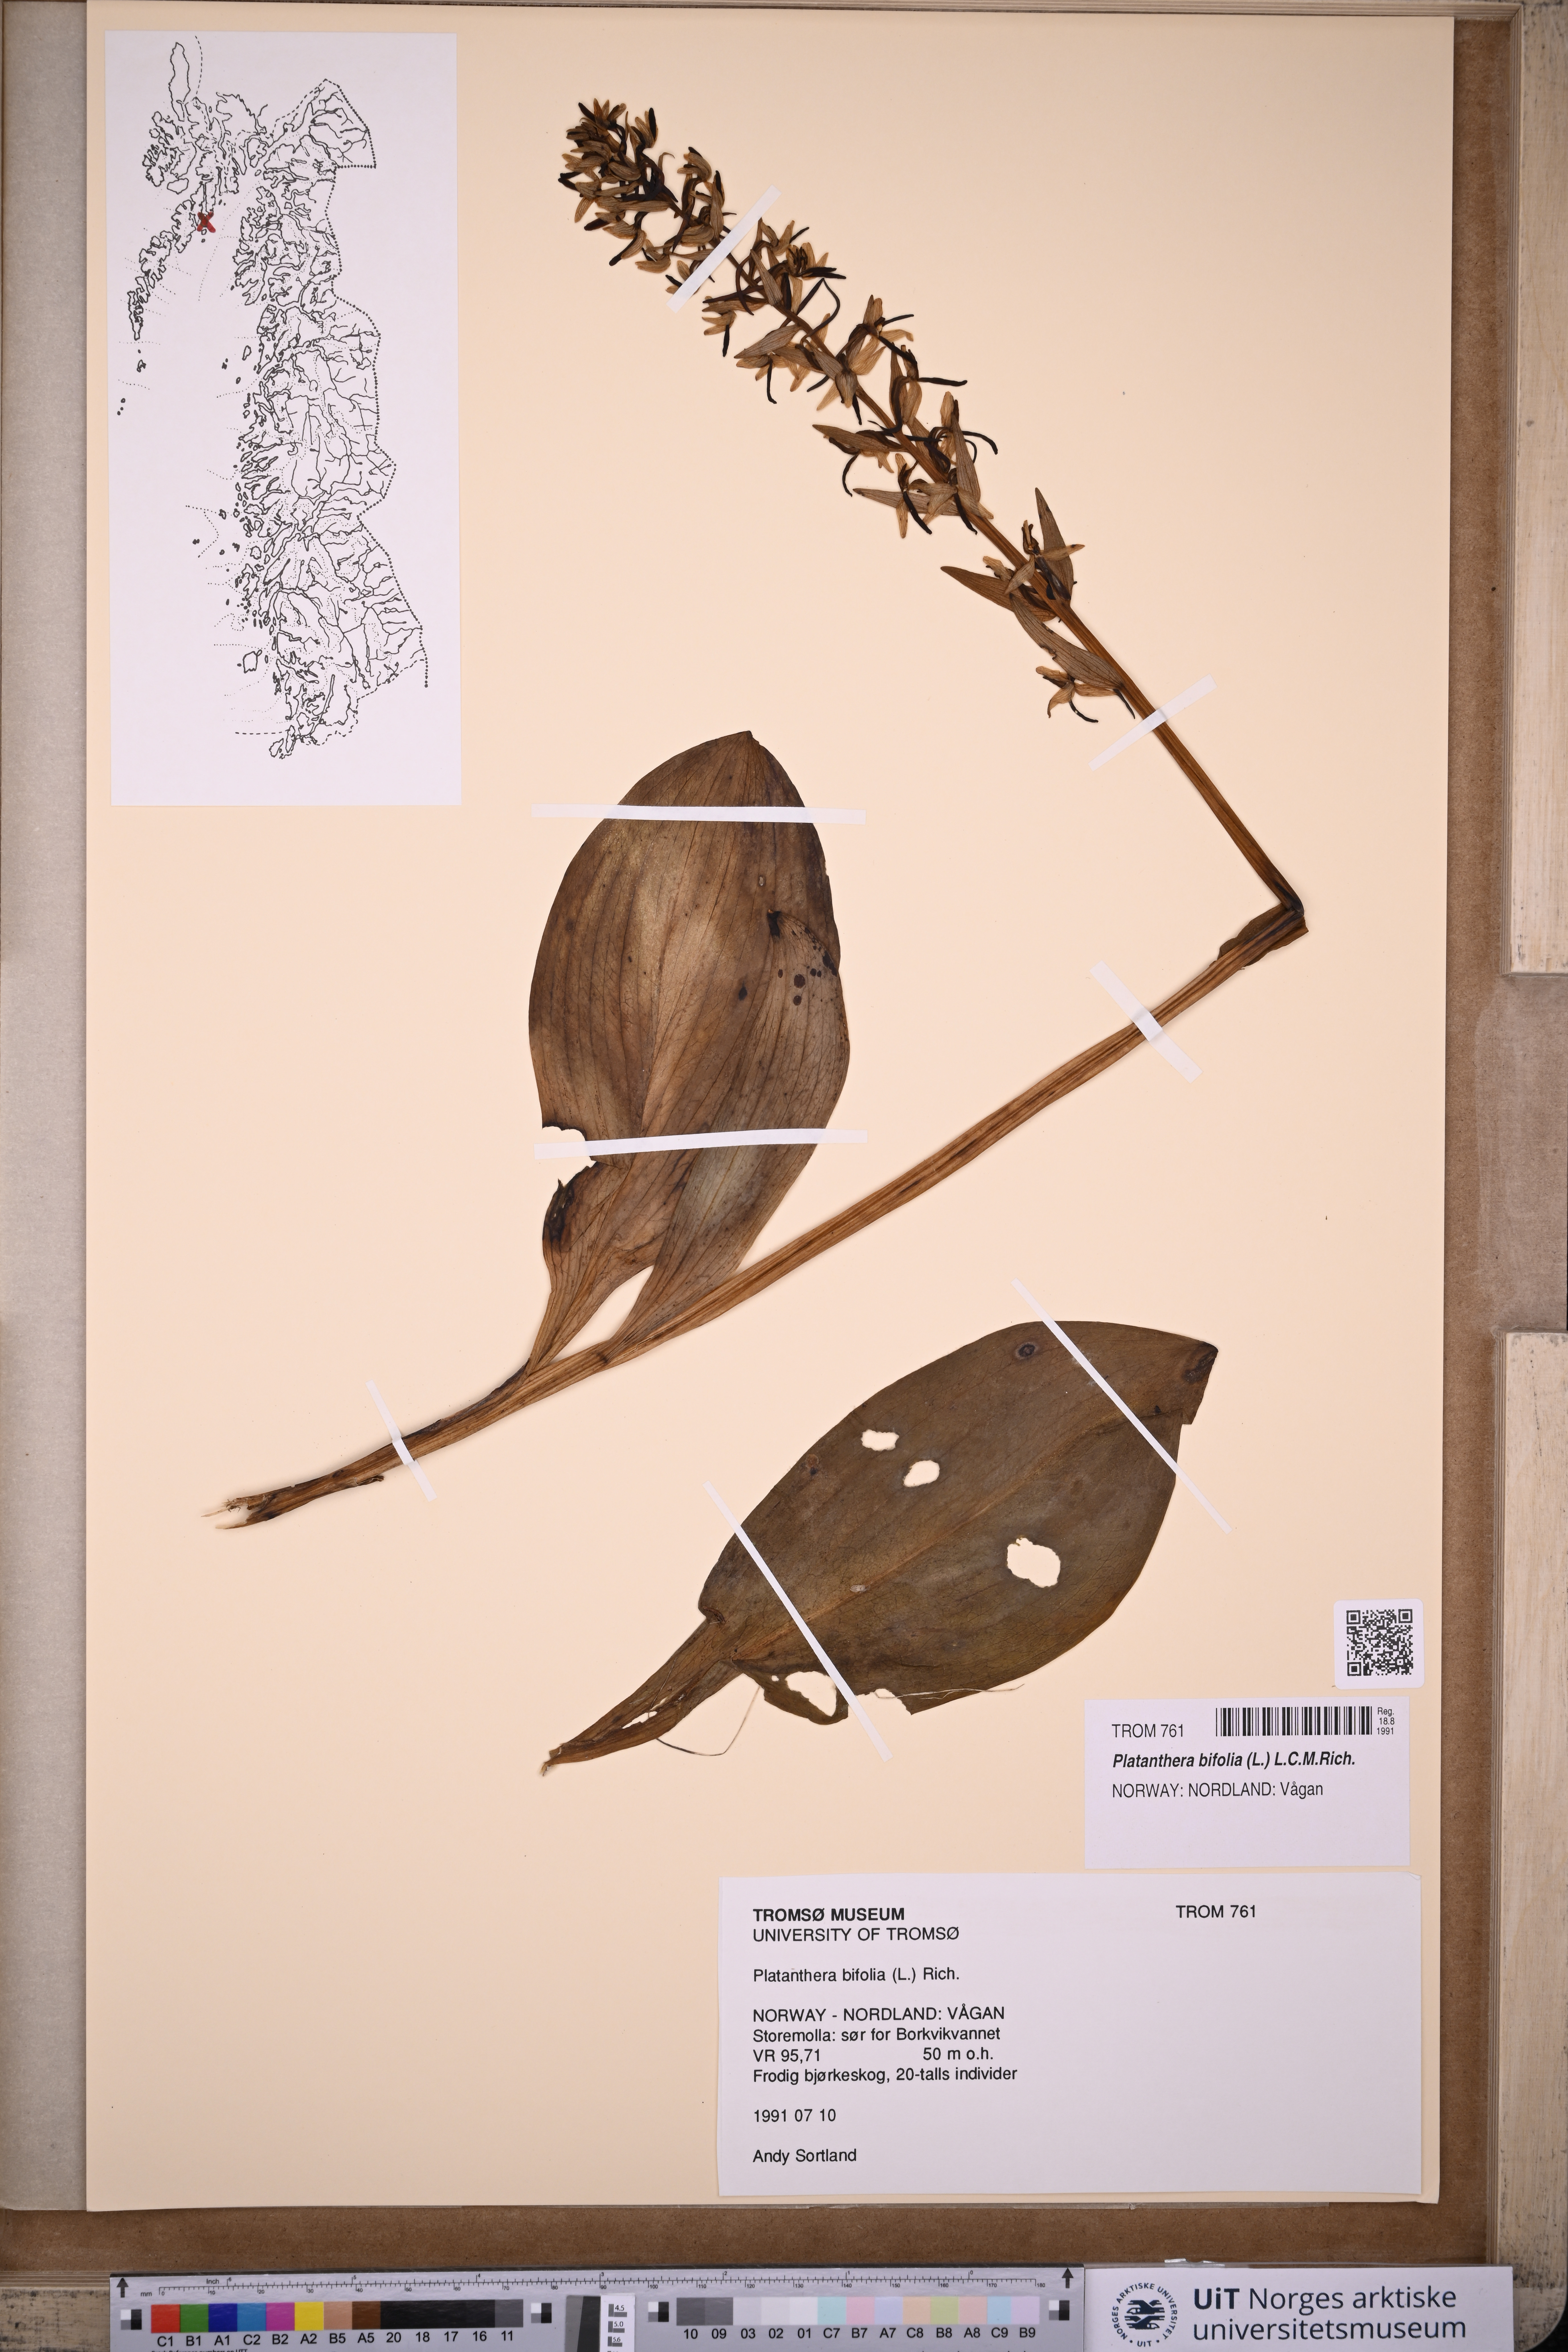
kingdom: Plantae
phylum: Tracheophyta
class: Liliopsida
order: Asparagales
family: Orchidaceae
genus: Platanthera
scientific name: Platanthera bifolia
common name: Lesser butterfly-orchid
